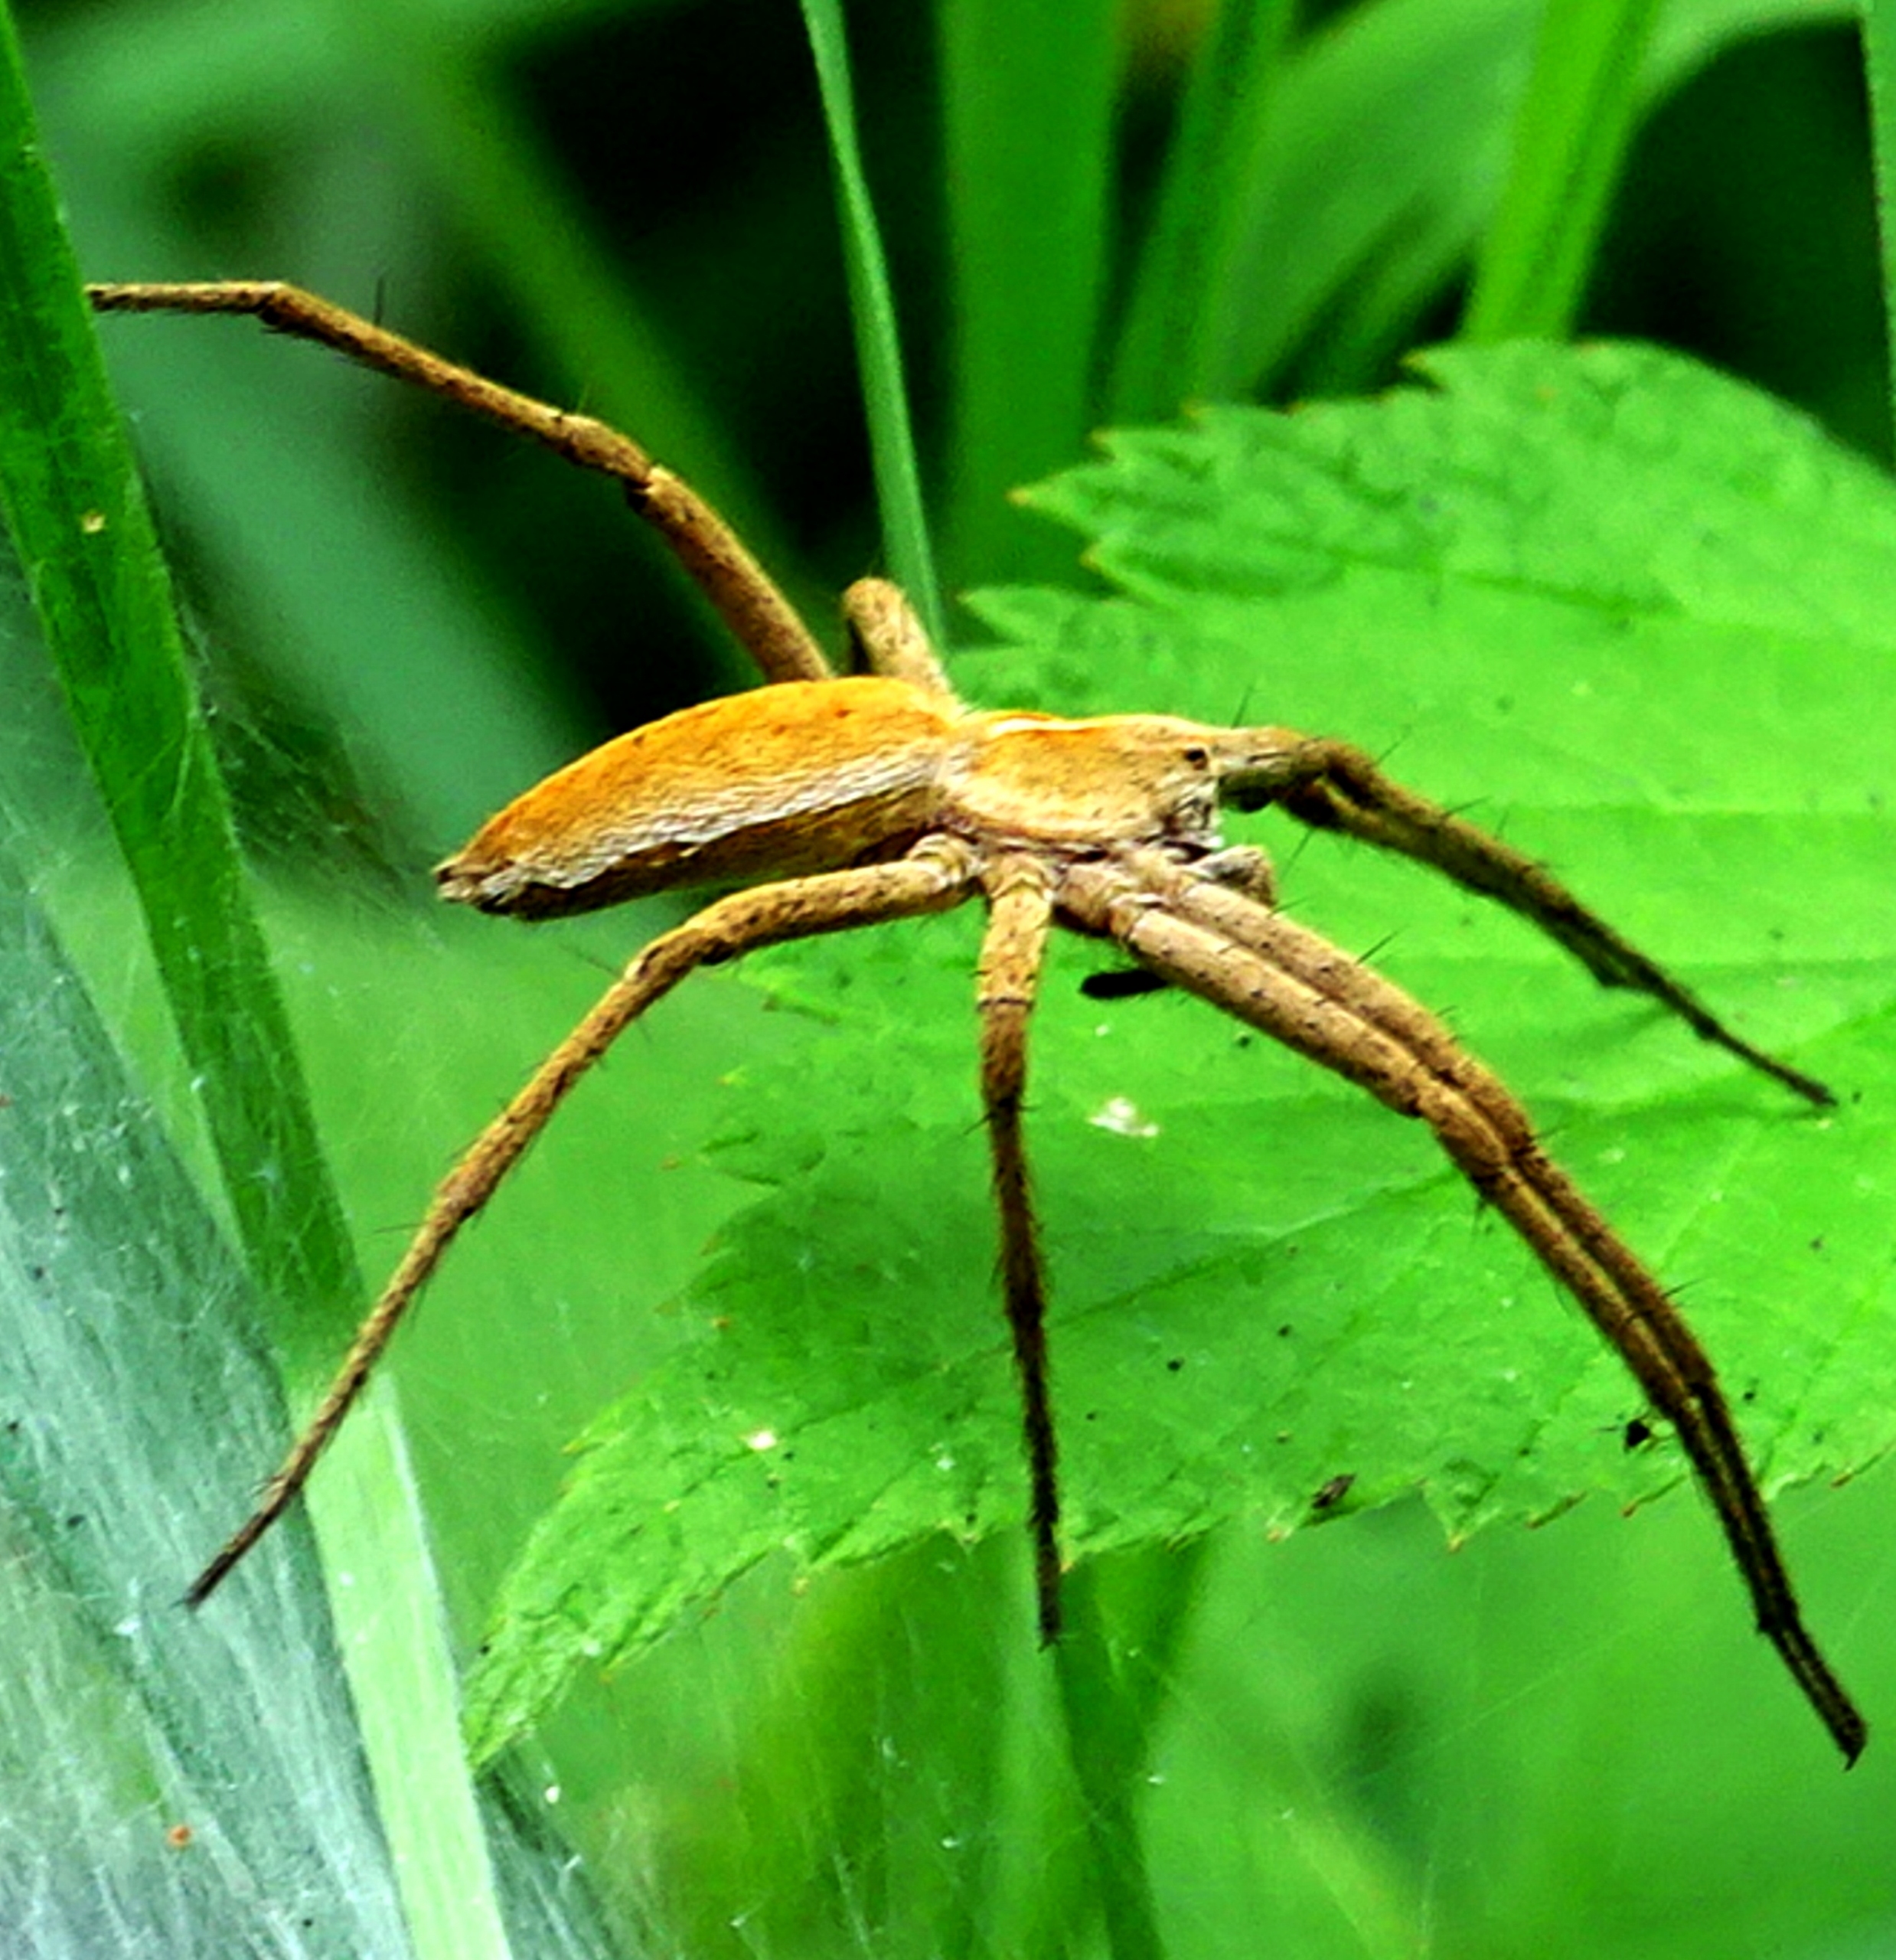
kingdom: Animalia
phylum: Arthropoda
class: Arachnida
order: Araneae
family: Pisauridae
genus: Pisaura
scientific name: Pisaura mirabilis
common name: Almindelig rovedderkop
